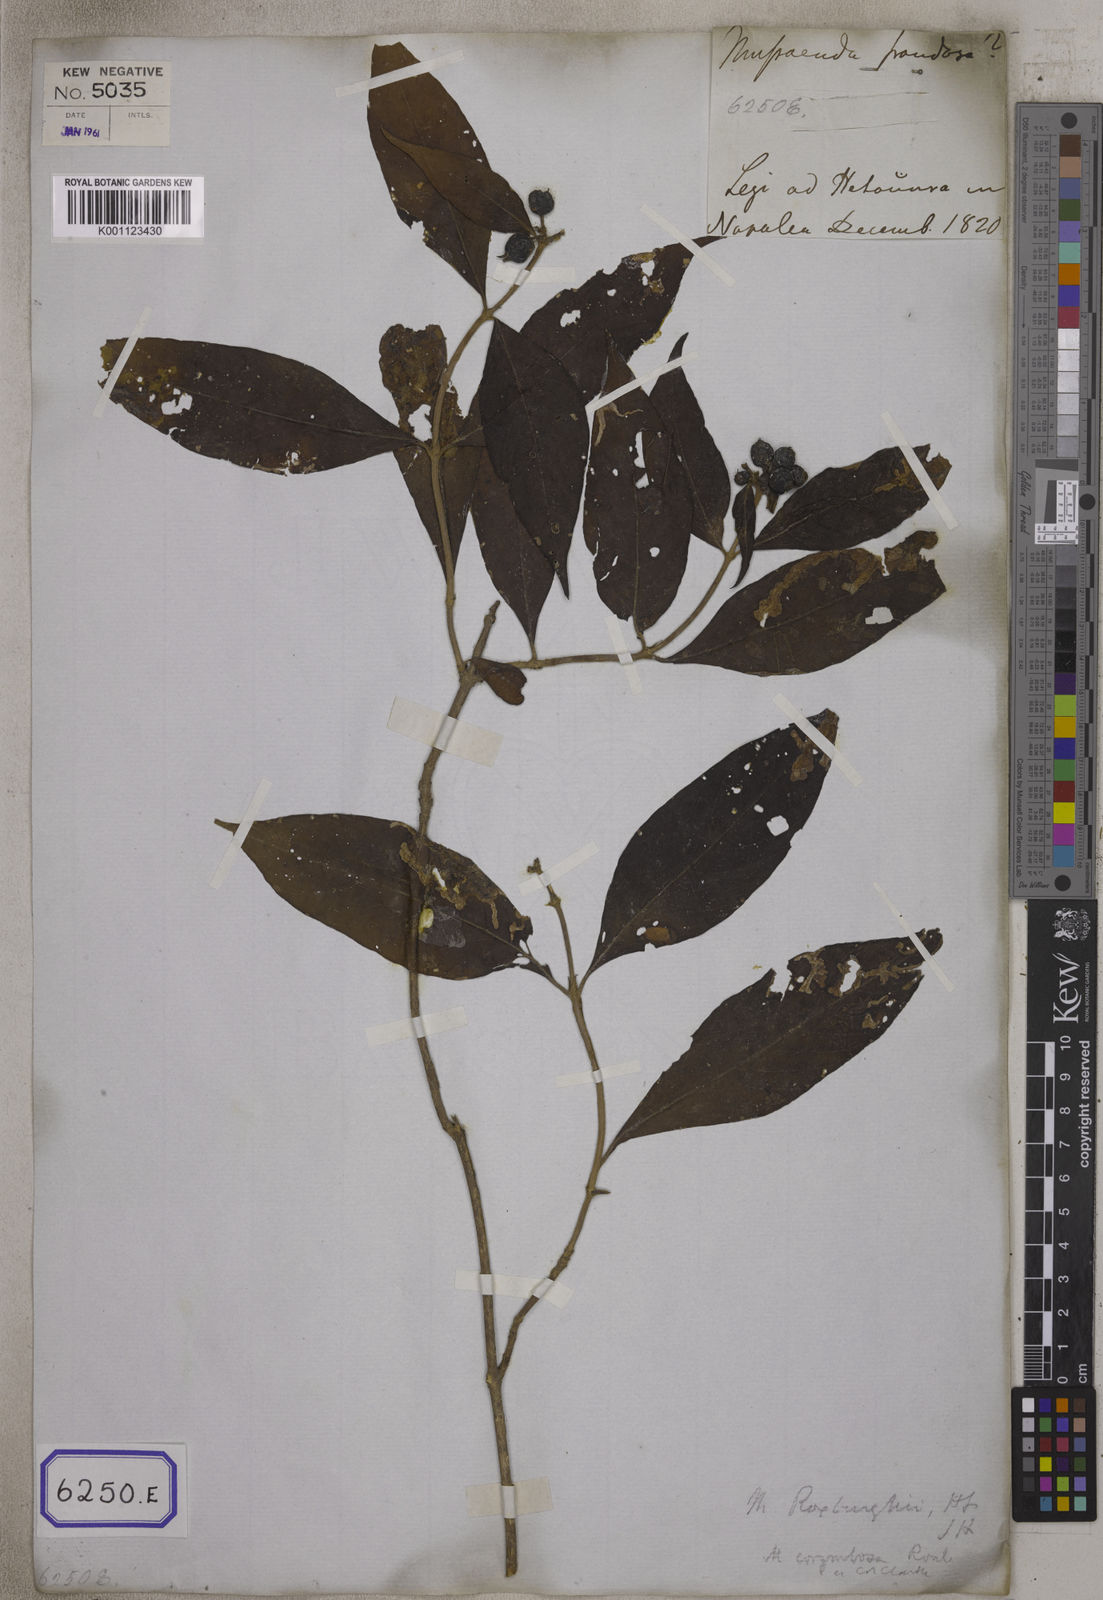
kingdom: Plantae
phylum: Tracheophyta
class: Magnoliopsida
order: Gentianales
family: Rubiaceae
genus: Mussaenda
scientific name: Mussaenda
